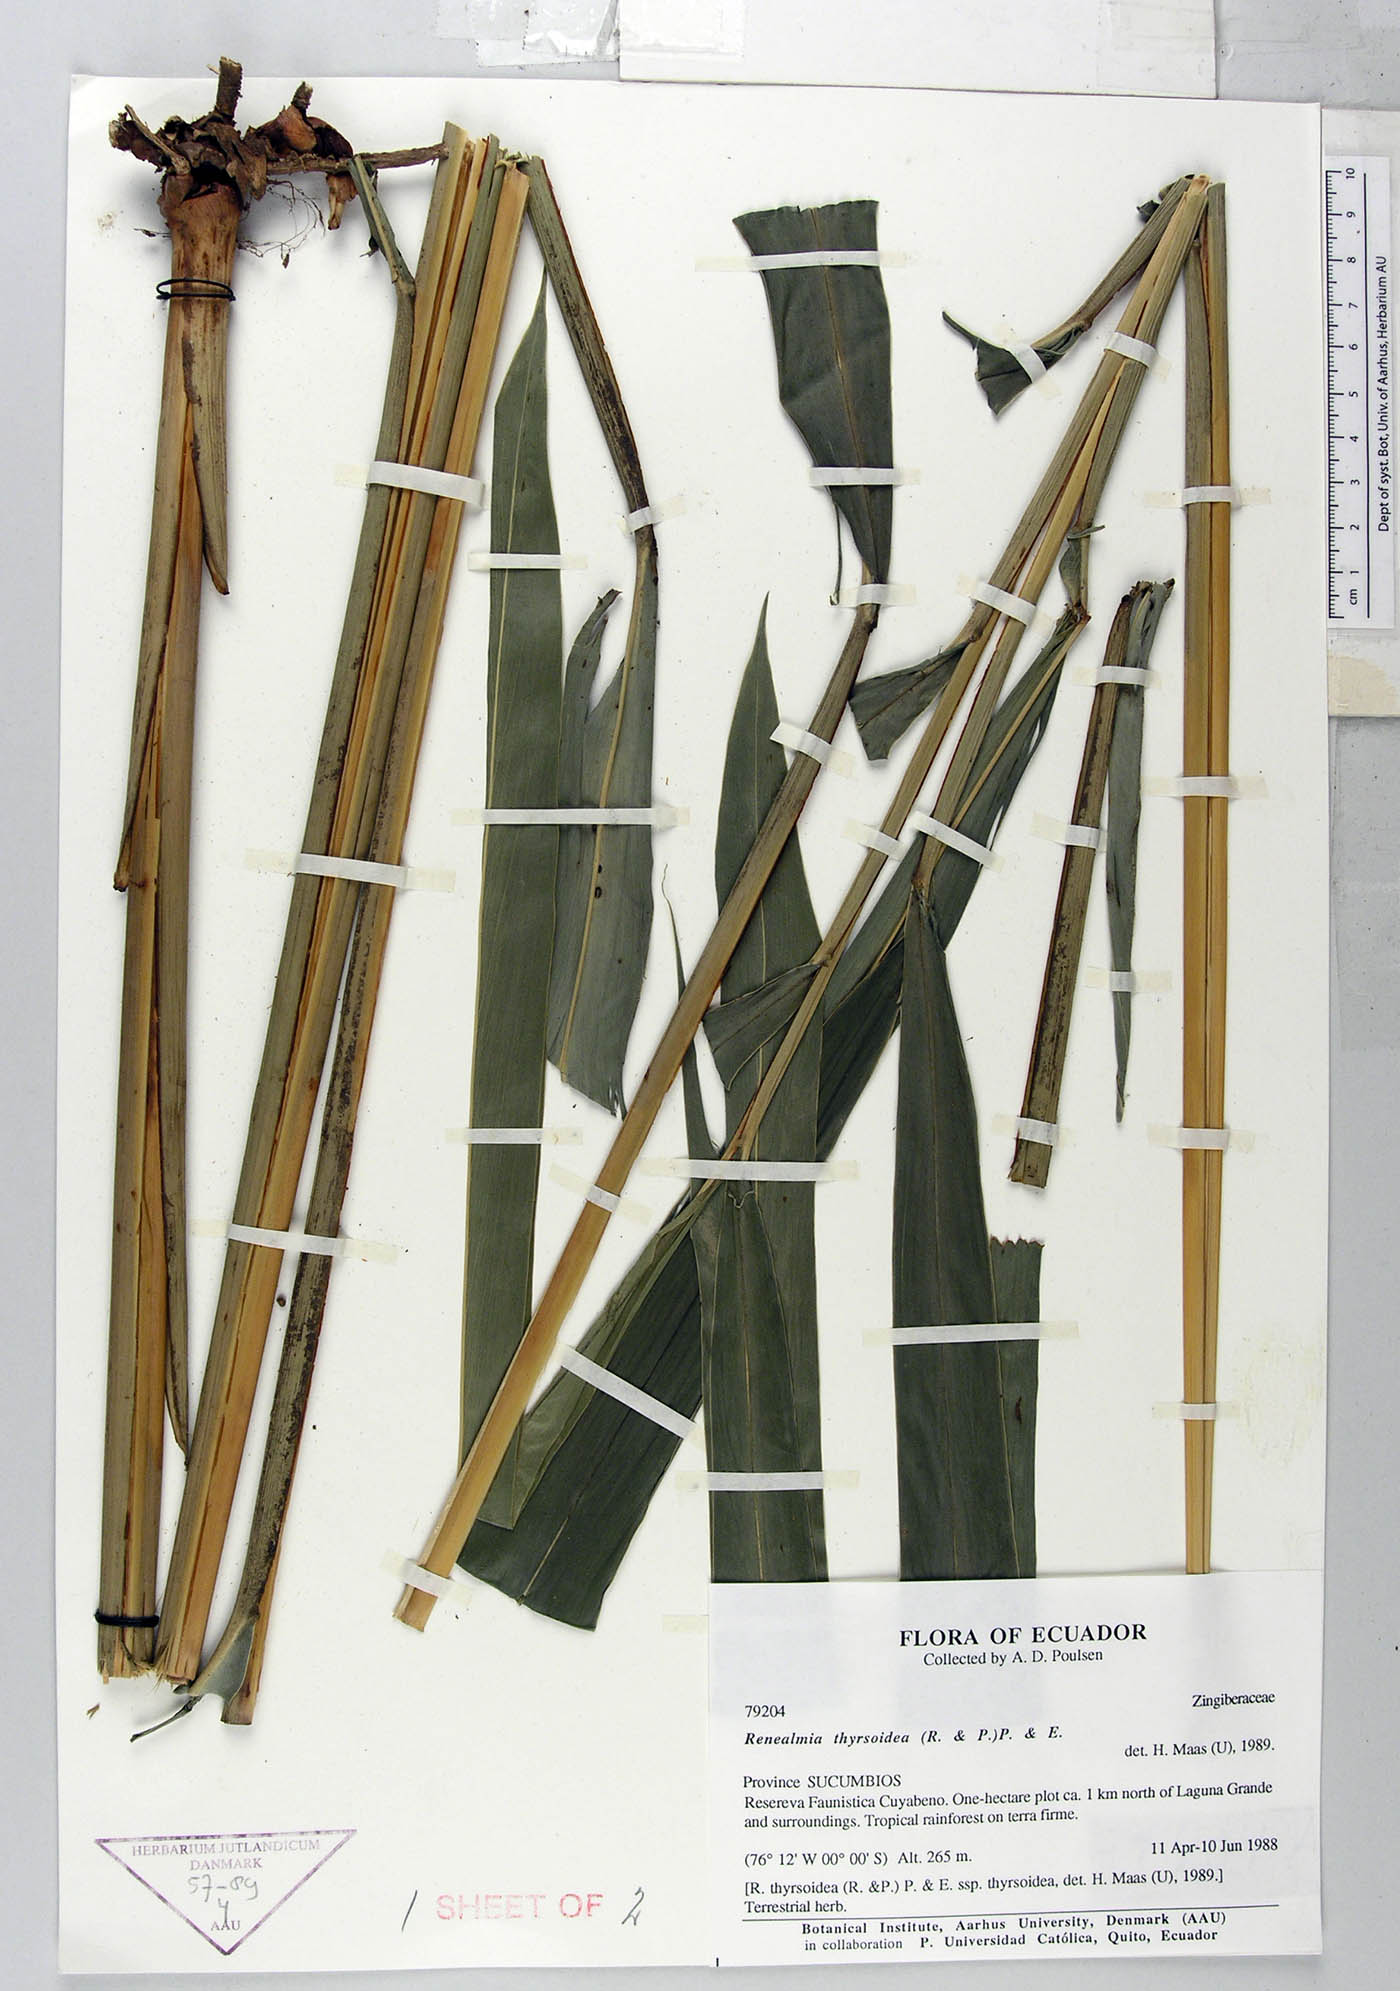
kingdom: Plantae
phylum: Tracheophyta
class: Liliopsida
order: Zingiberales
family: Zingiberaceae
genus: Renealmia
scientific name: Renealmia thyrsoidea
